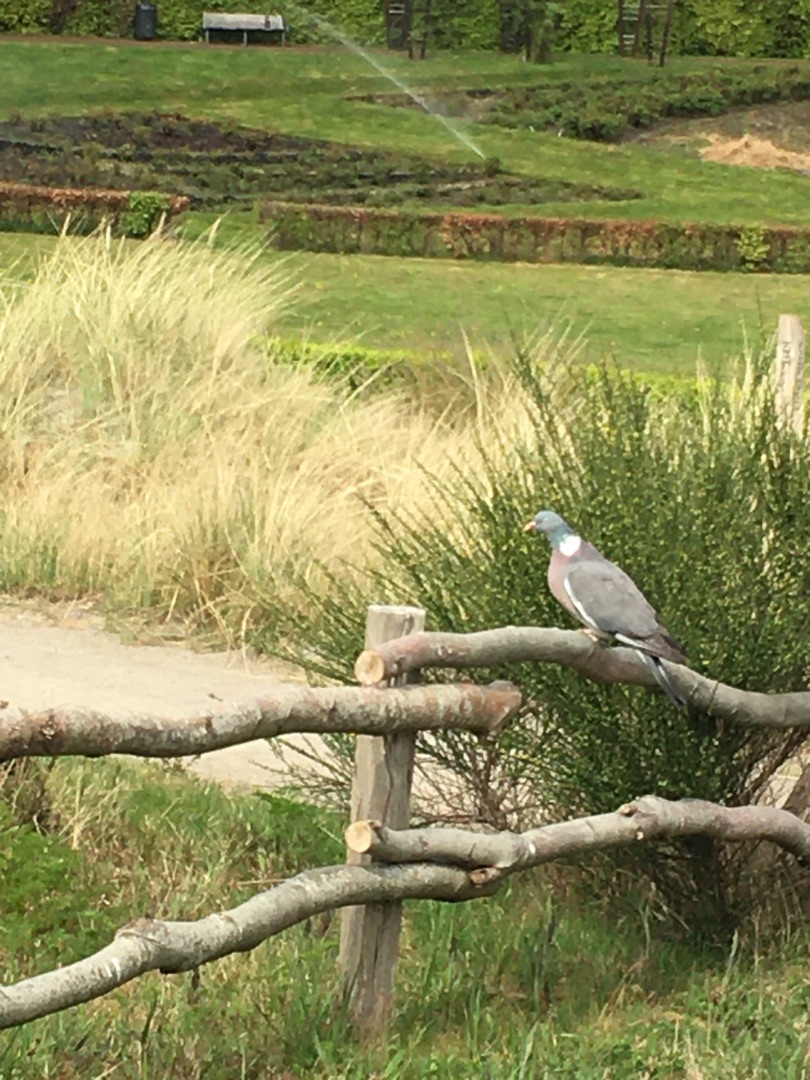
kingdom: Animalia
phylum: Chordata
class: Aves
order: Columbiformes
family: Columbidae
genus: Columba
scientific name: Columba palumbus
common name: Ringdue
